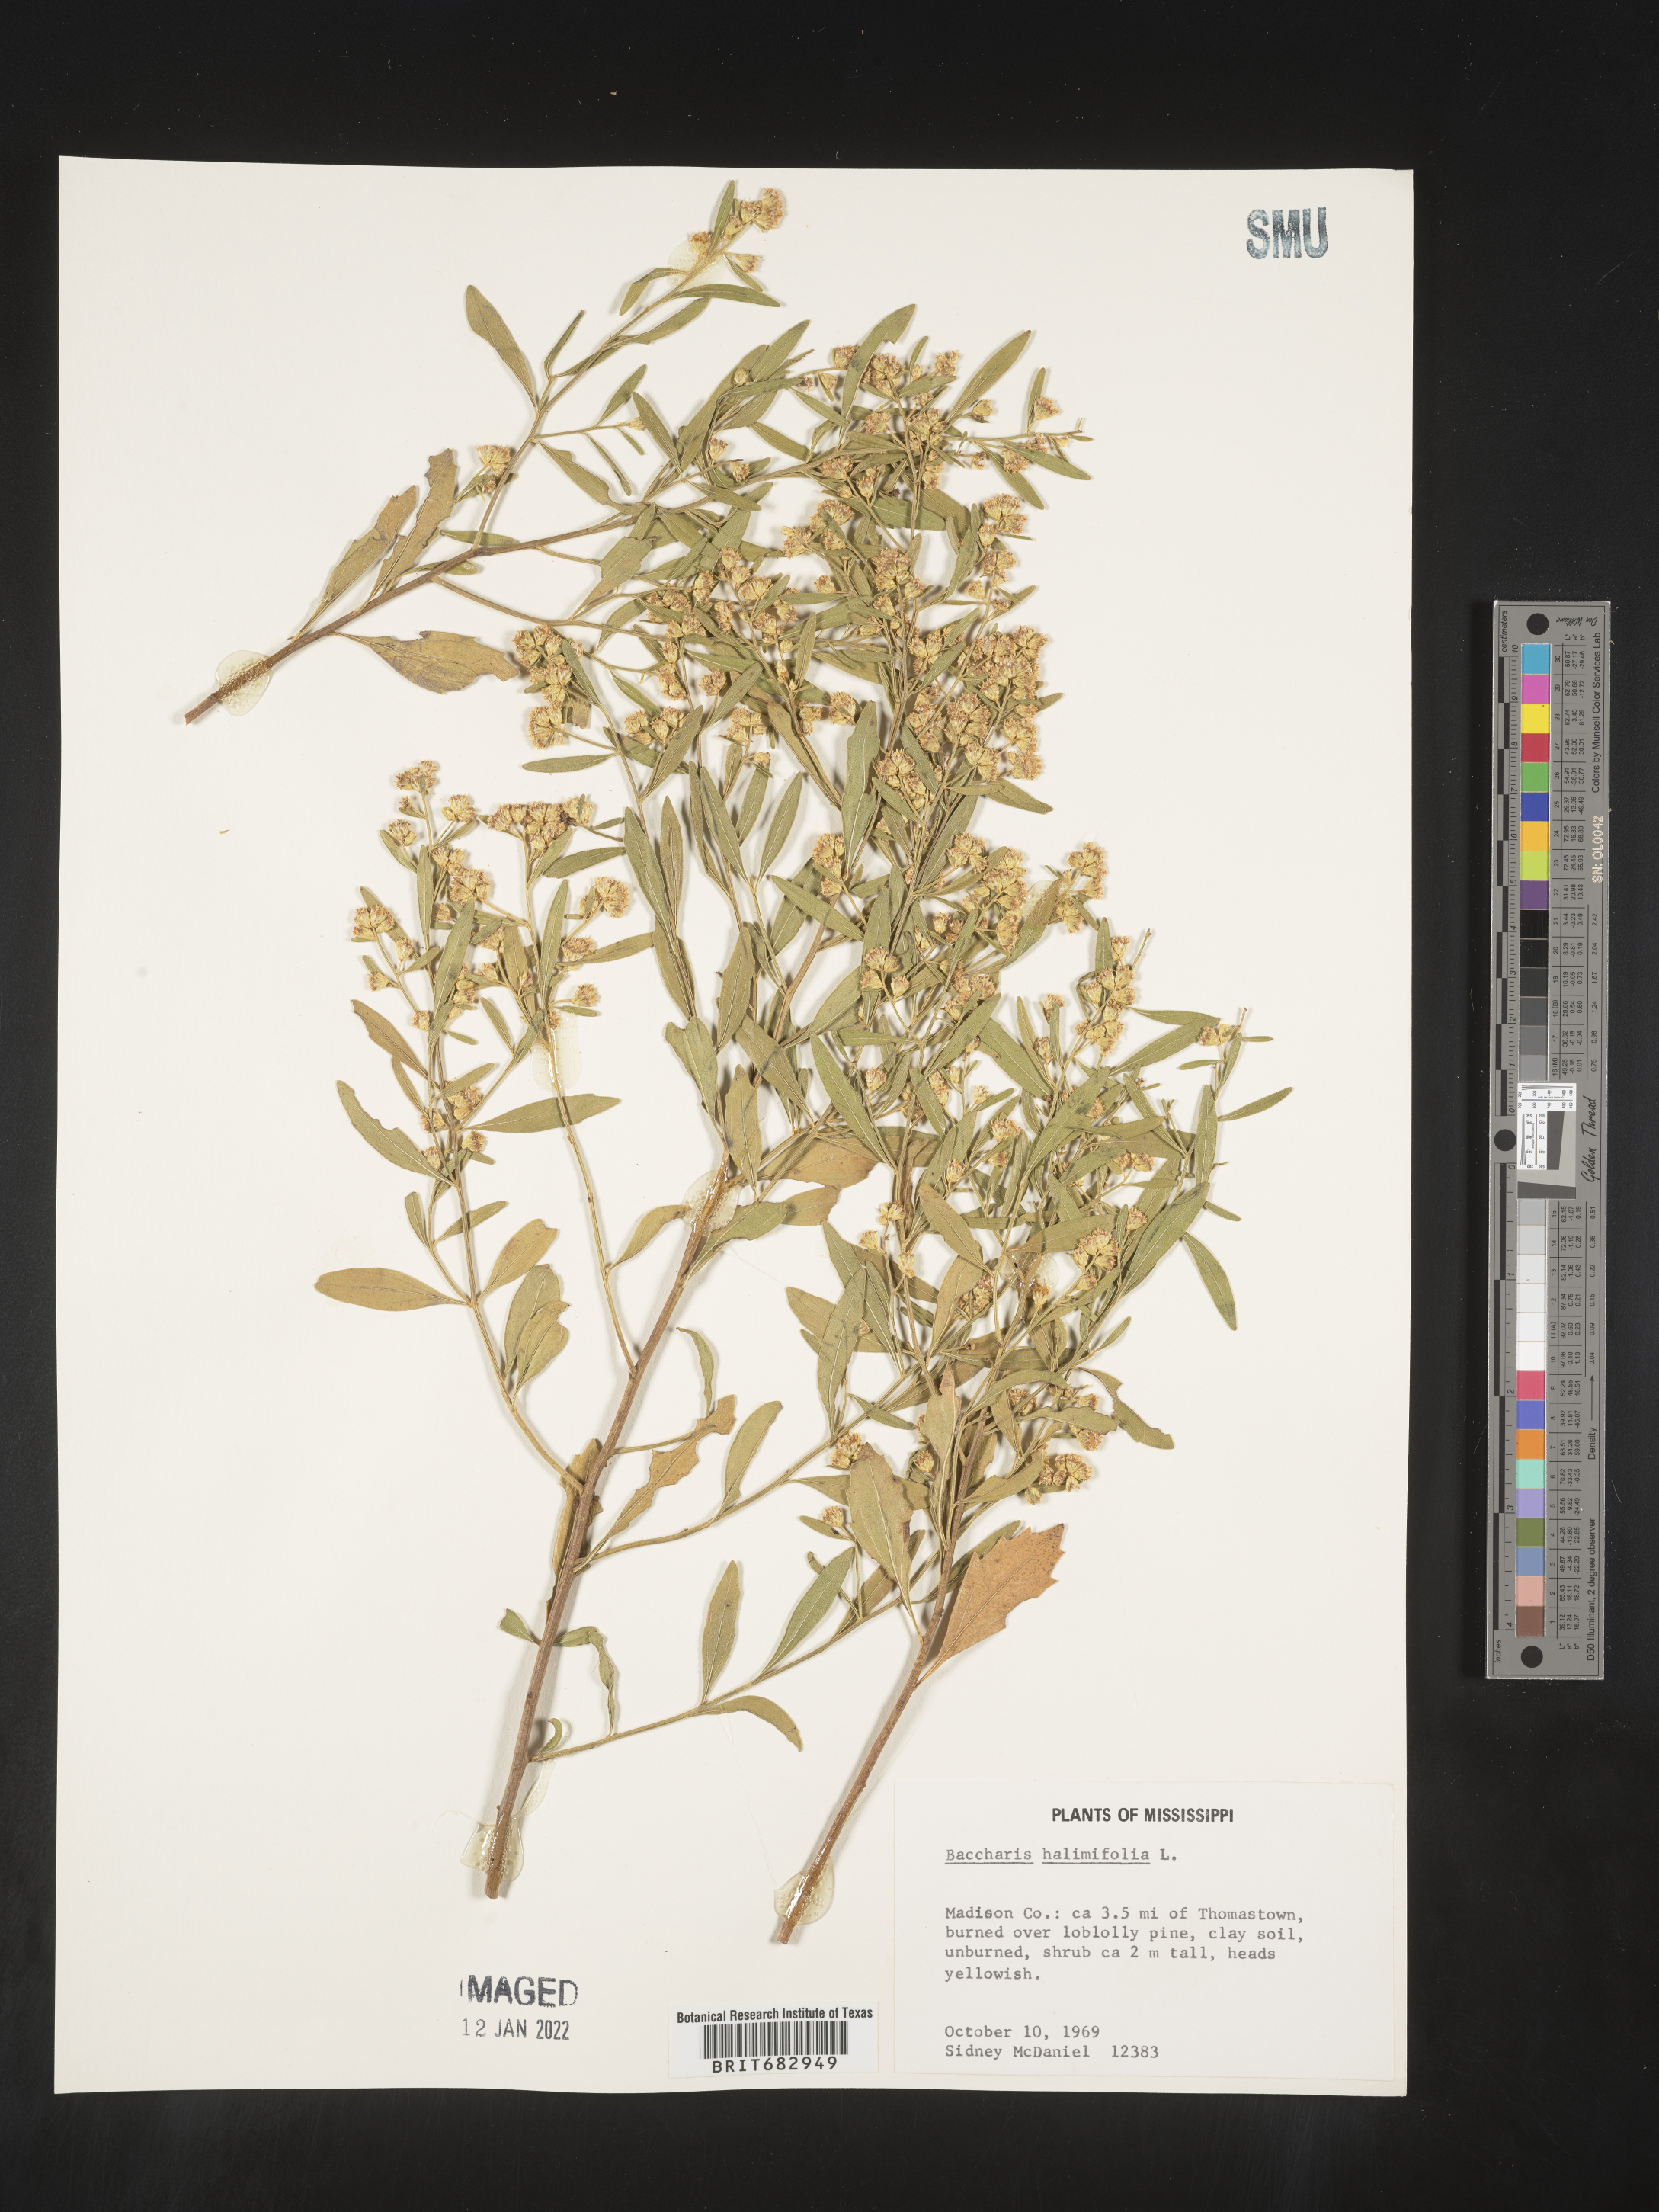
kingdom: Plantae
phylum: Tracheophyta
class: Magnoliopsida
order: Asterales
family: Asteraceae
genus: Nidorella
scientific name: Nidorella ivifolia
